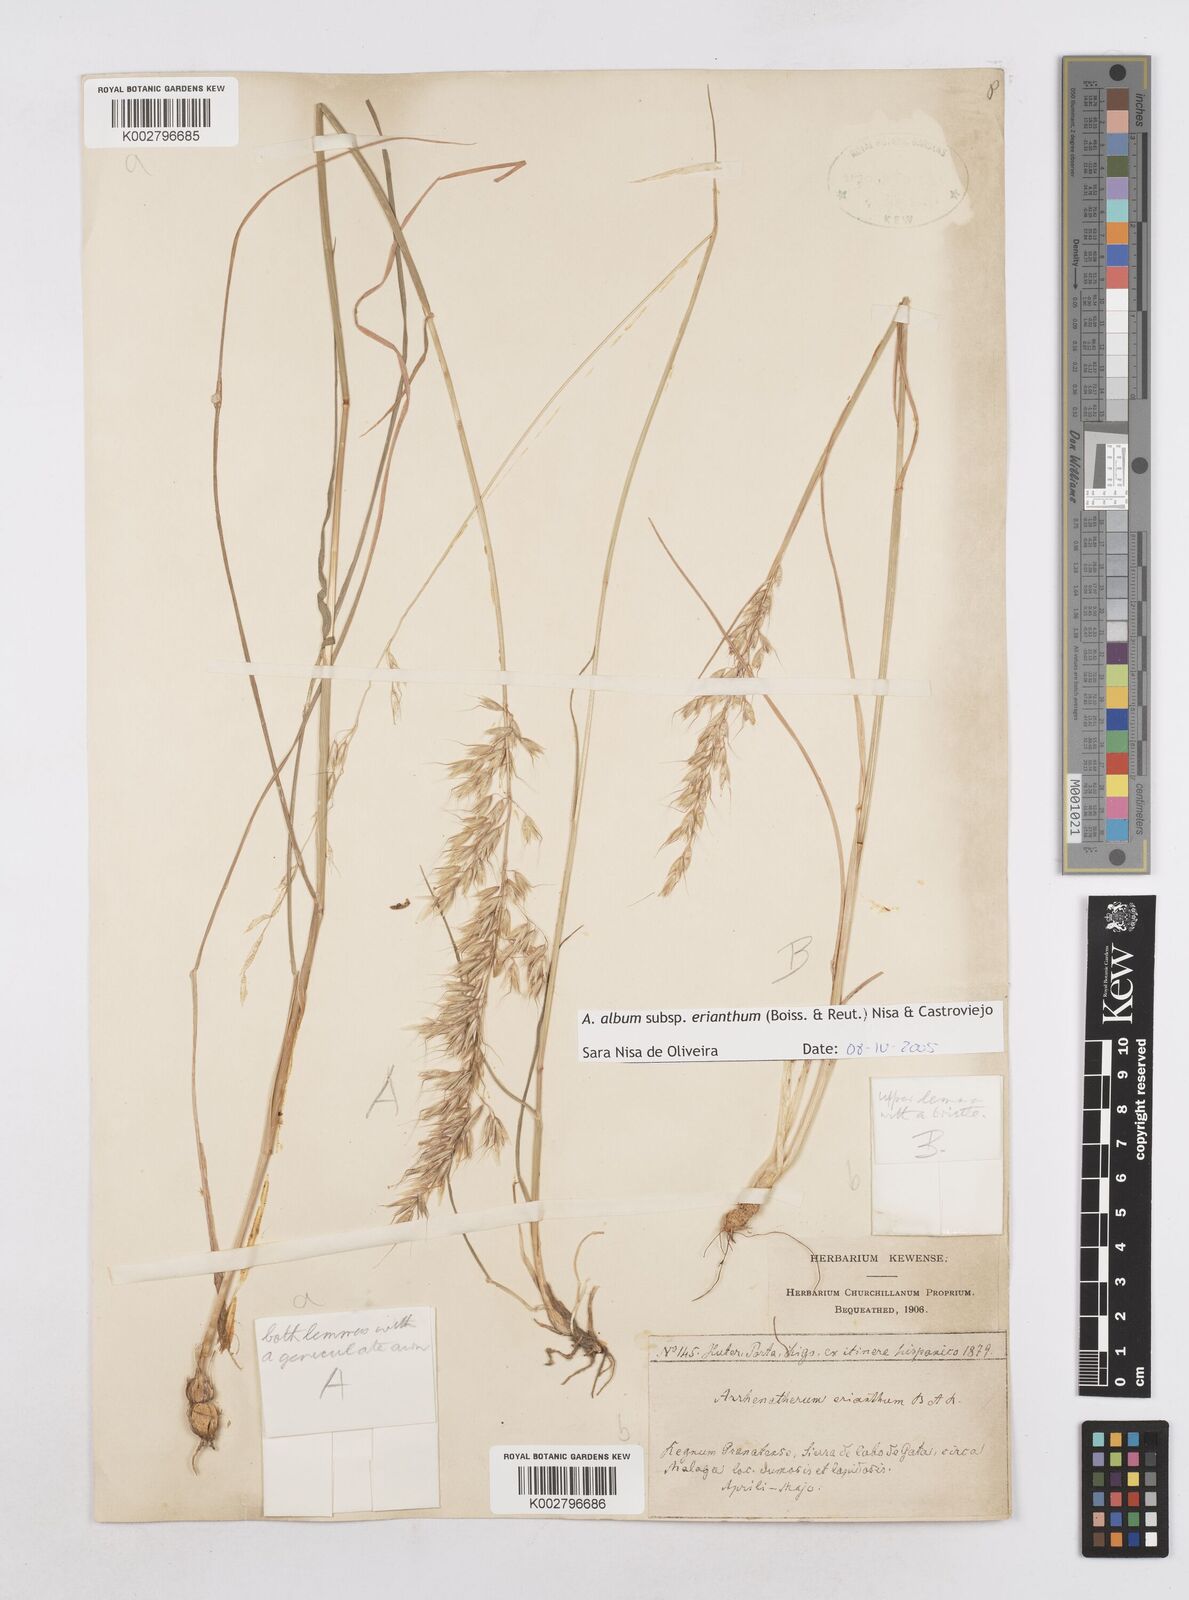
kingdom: Plantae
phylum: Tracheophyta
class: Liliopsida
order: Poales
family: Poaceae
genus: Arrhenatherum
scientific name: Arrhenatherum album
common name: Tall oat grass
